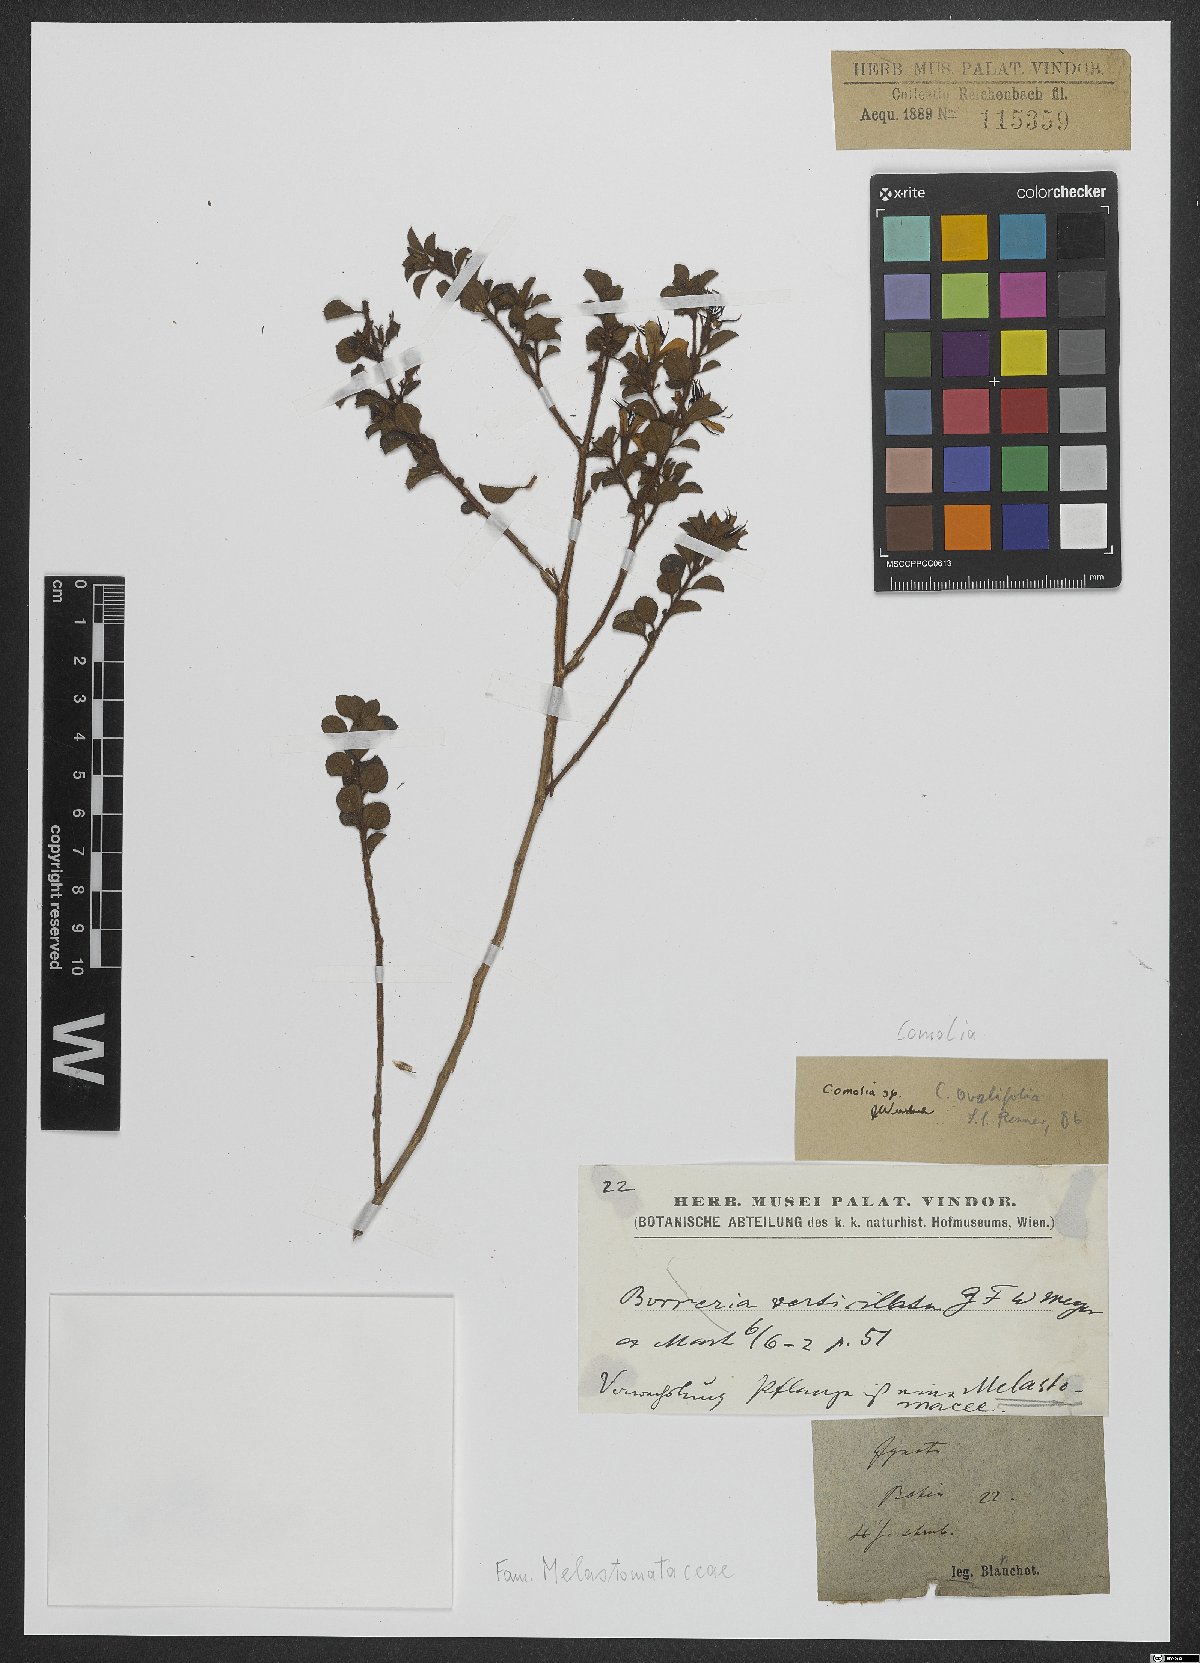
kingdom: Plantae
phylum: Tracheophyta
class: Magnoliopsida
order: Myrtales
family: Melastomataceae
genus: Comolia
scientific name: Comolia
